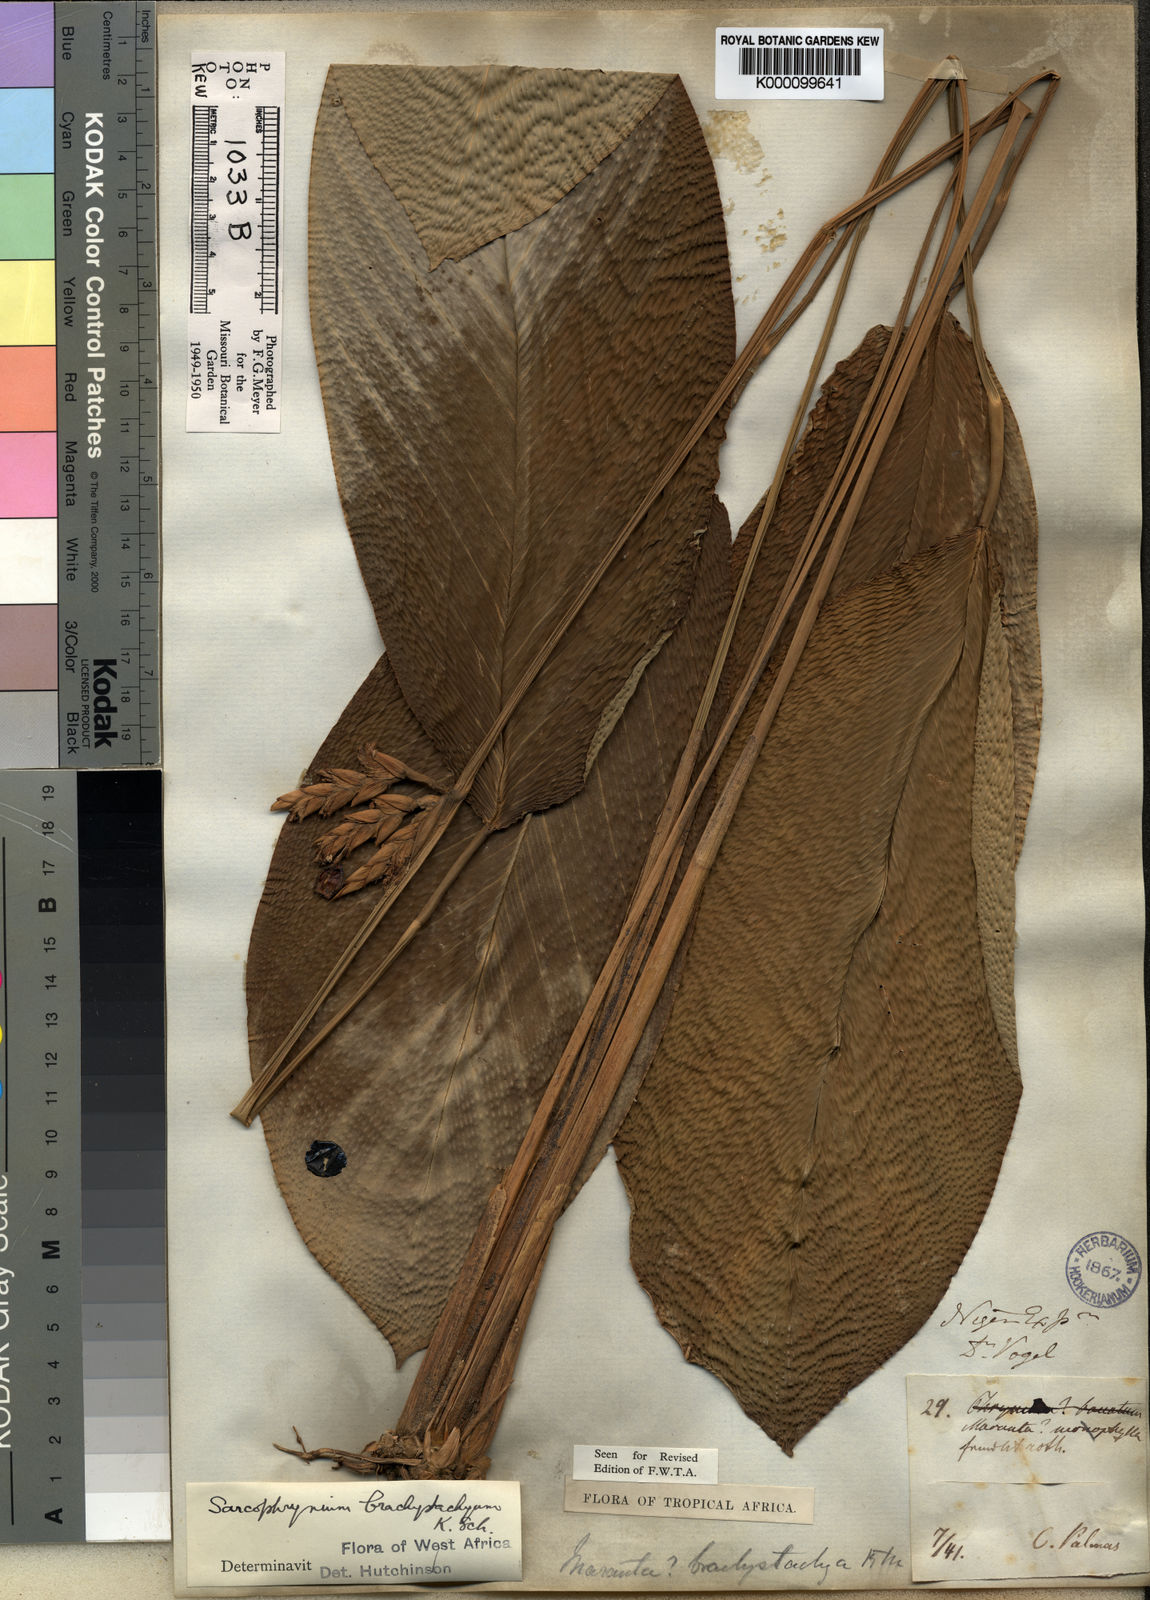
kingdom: Plantae
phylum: Tracheophyta
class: Liliopsida
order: Zingiberales
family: Marantaceae
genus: Sarcophrynium
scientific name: Sarcophrynium brachystachyum
